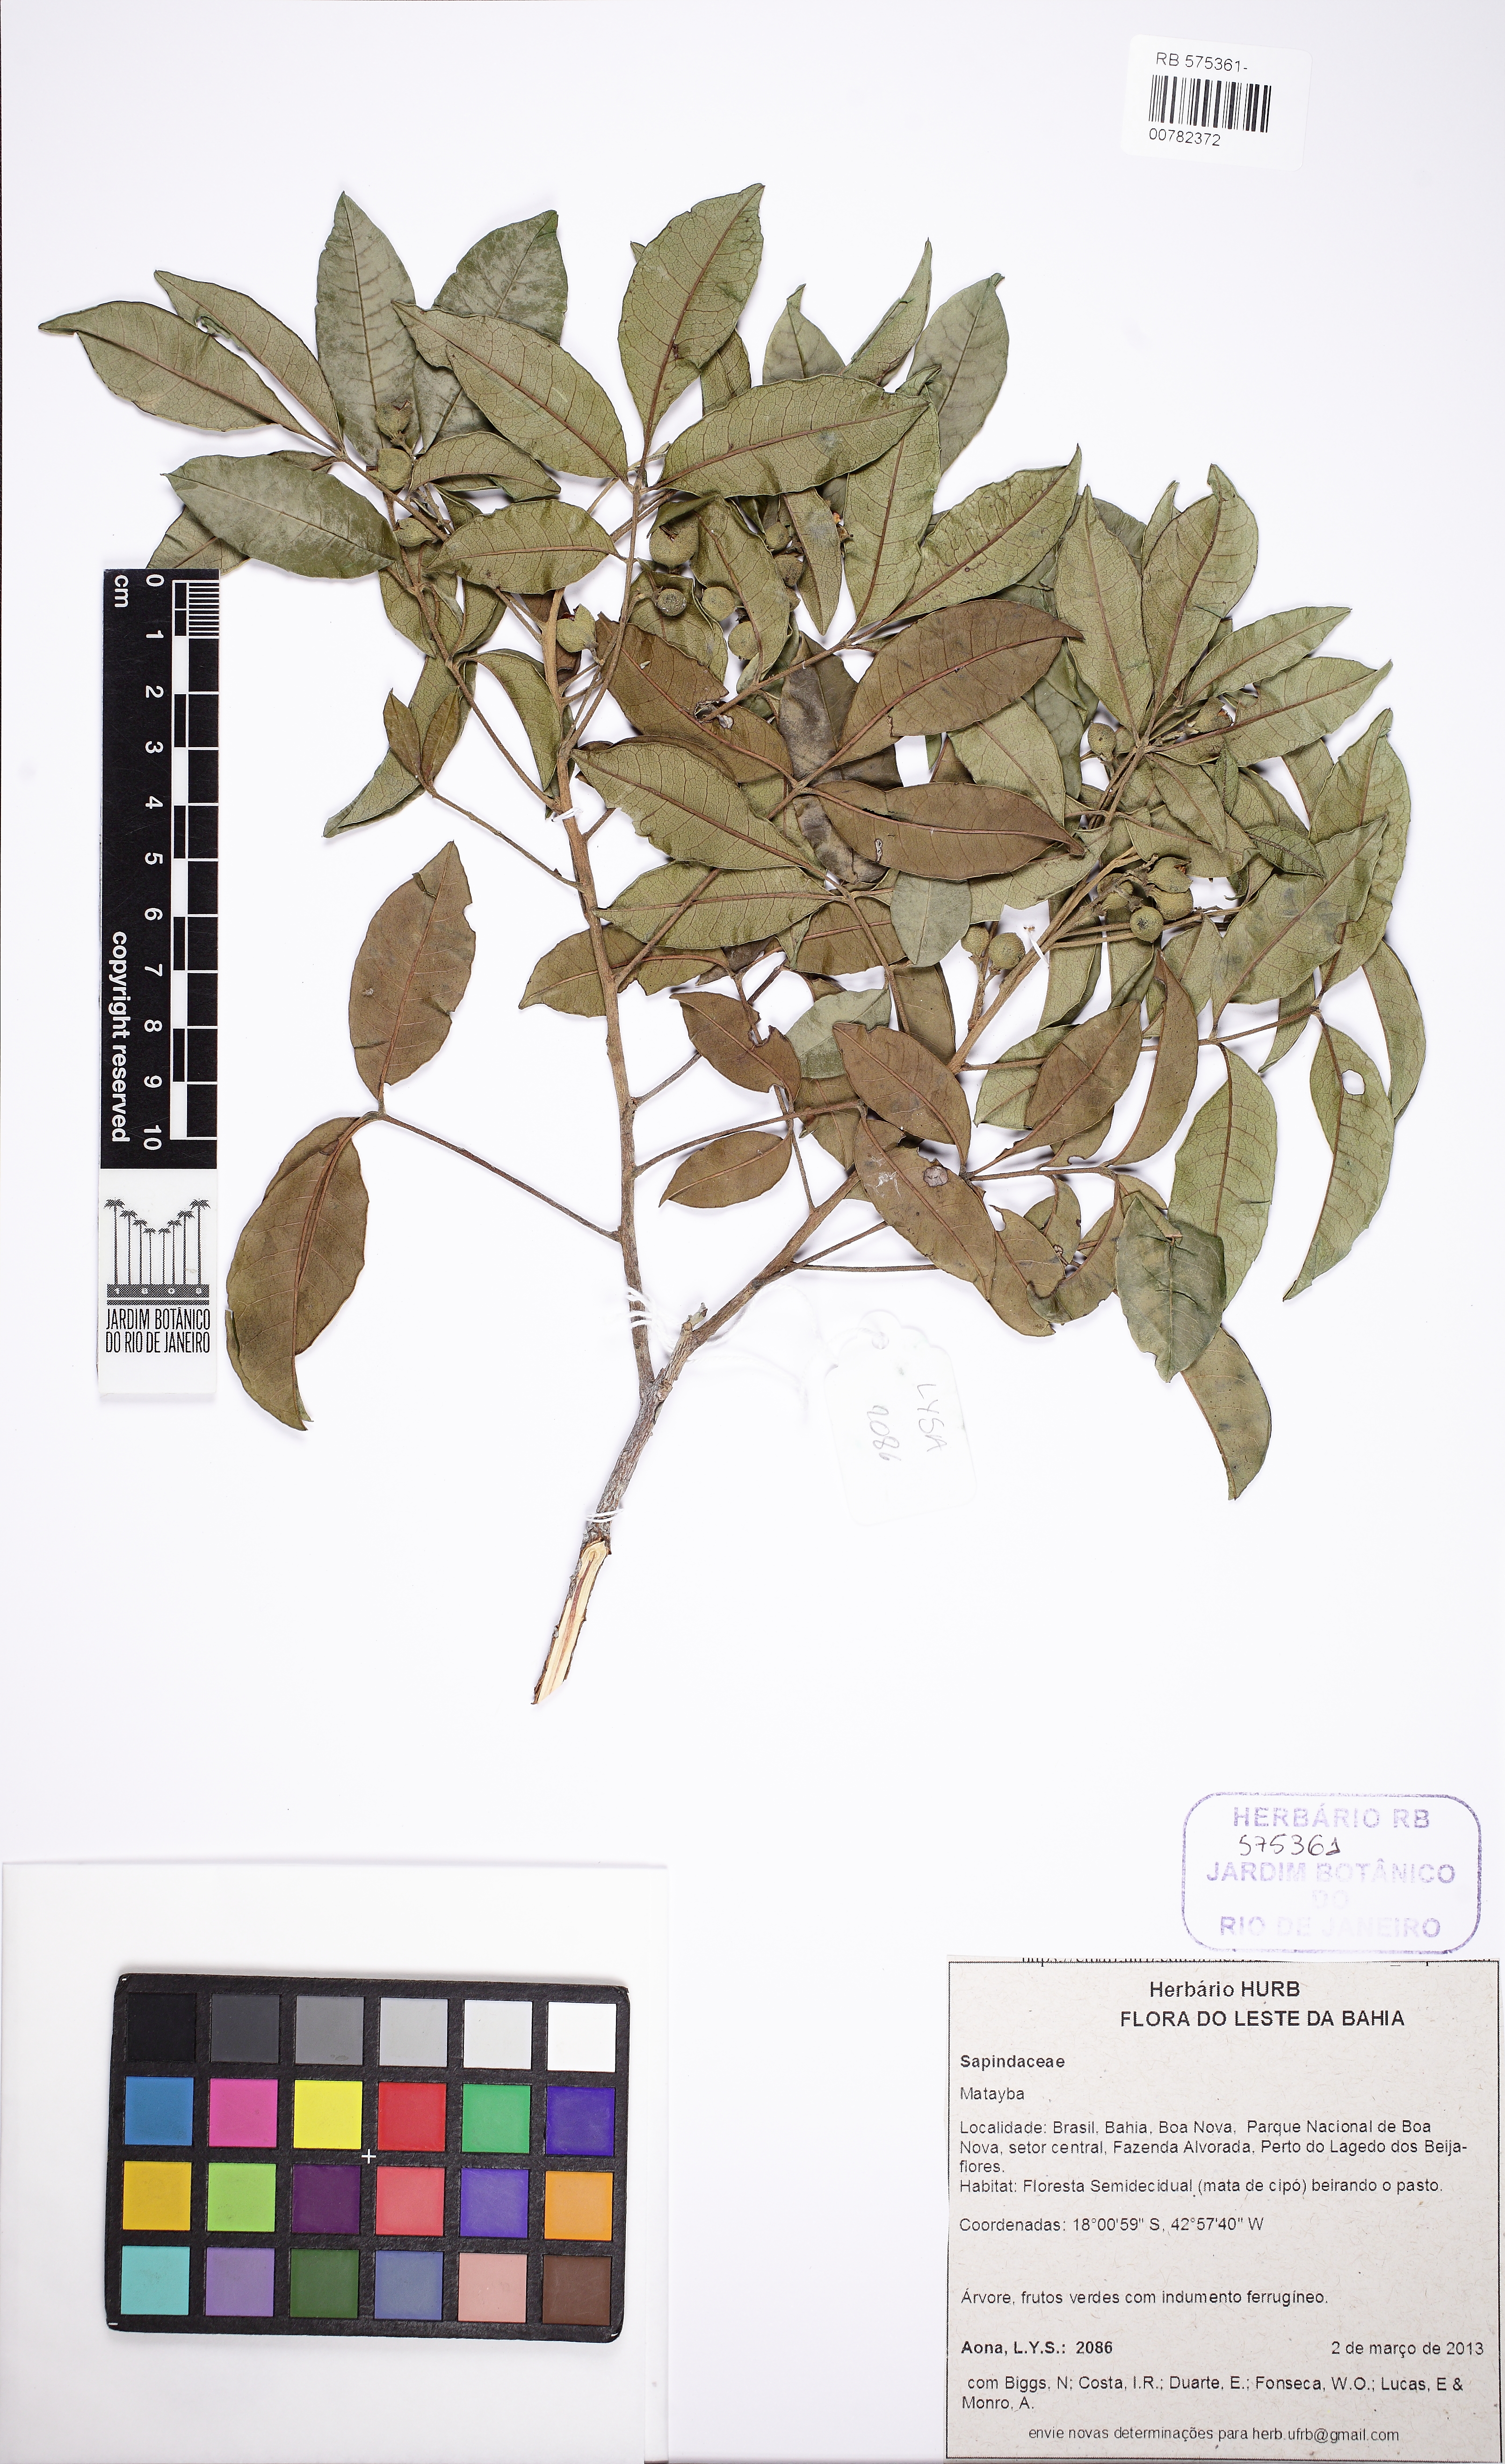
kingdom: Plantae
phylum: Tracheophyta
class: Magnoliopsida
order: Sapindales
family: Meliaceae
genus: Trichilia
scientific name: Trichilia
